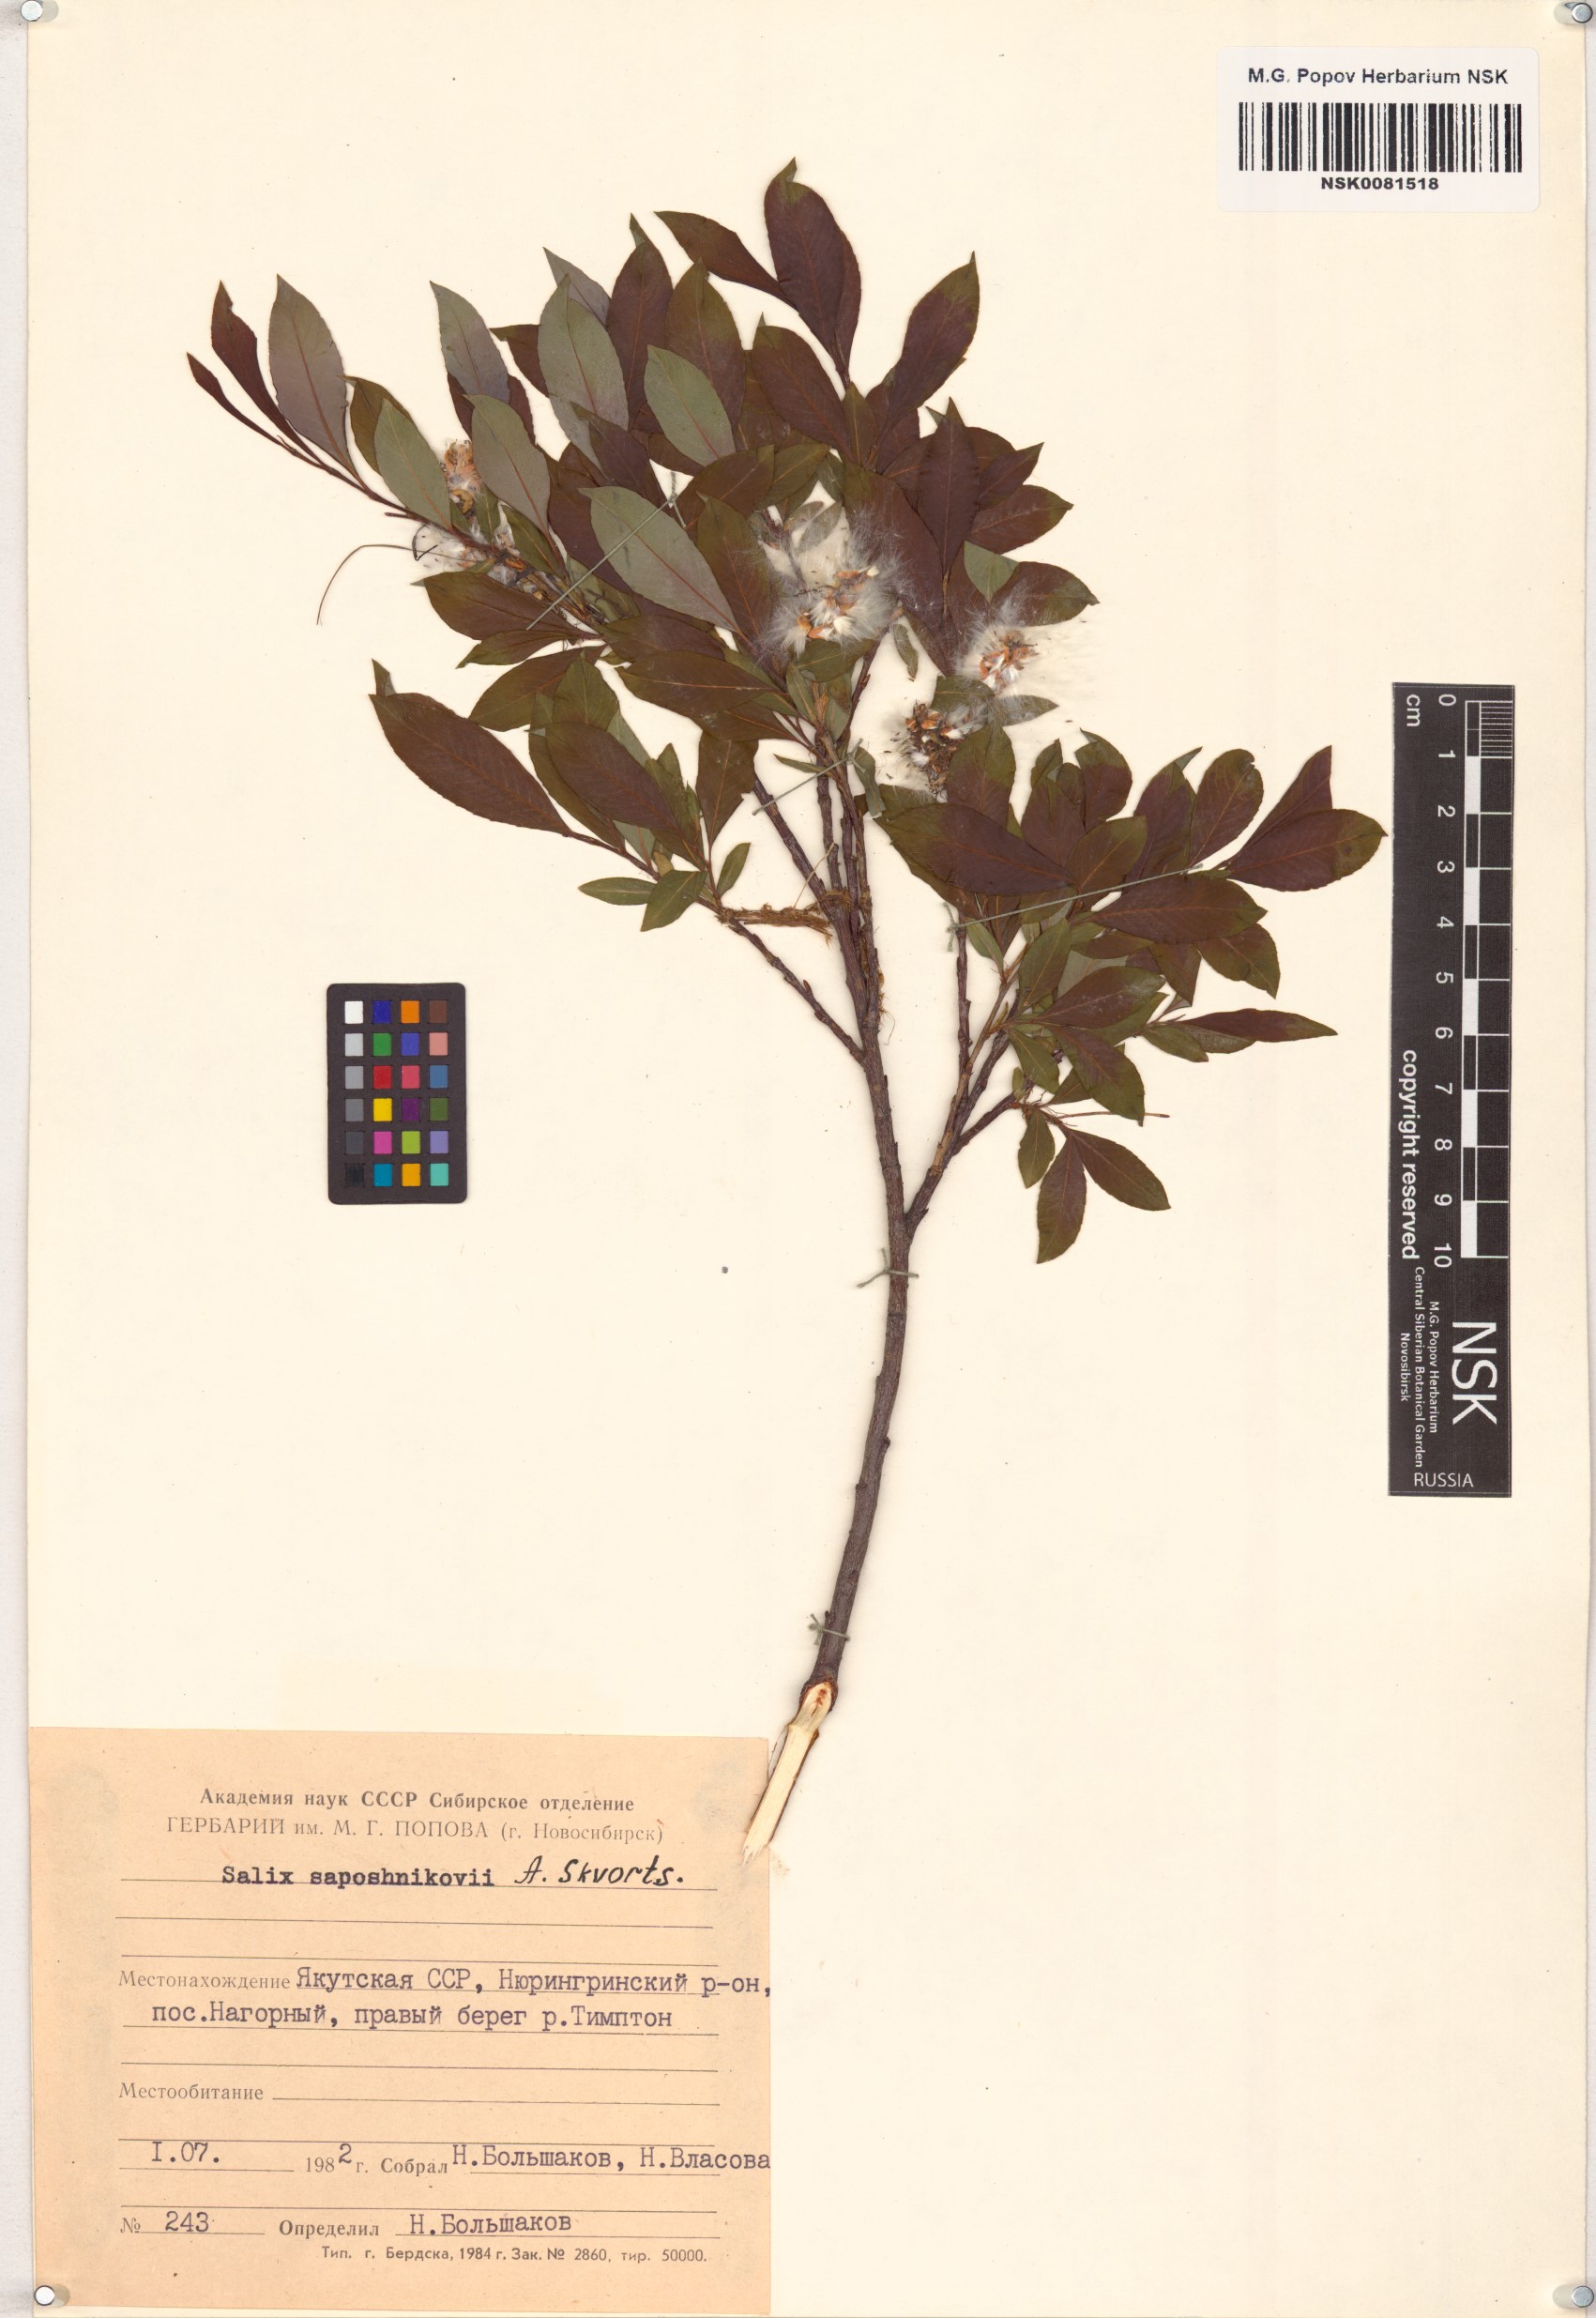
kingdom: Plantae
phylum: Tracheophyta
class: Magnoliopsida
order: Malpighiales
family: Salicaceae
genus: Salix
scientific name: Salix saposhnikovii
